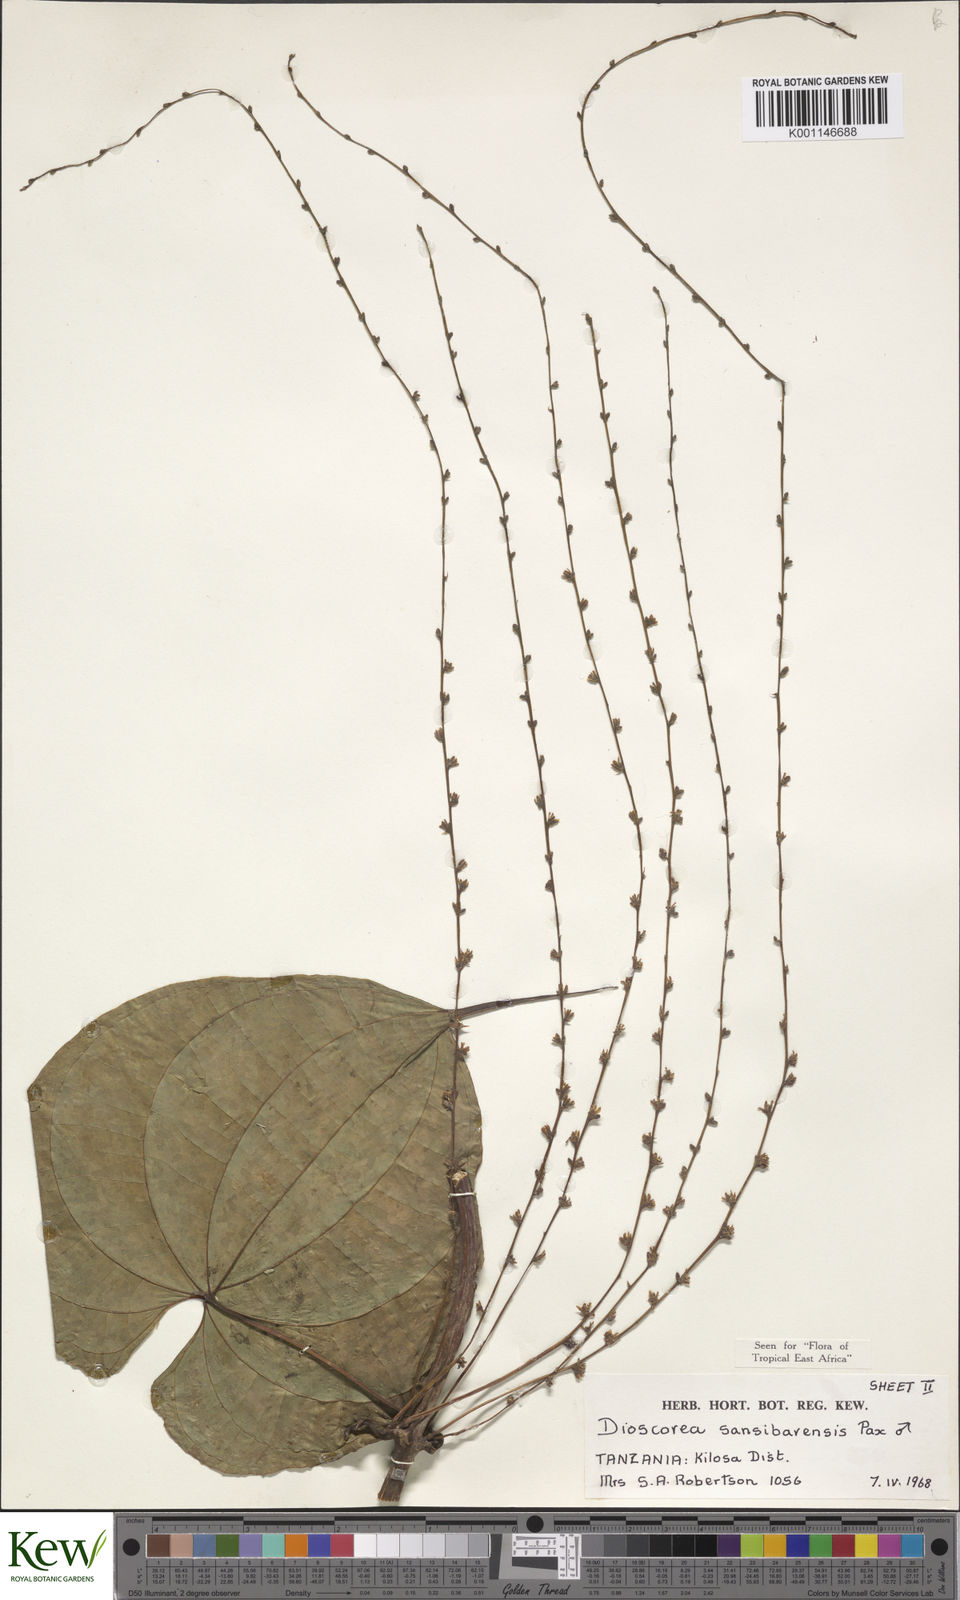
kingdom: Plantae
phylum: Tracheophyta
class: Liliopsida
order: Dioscoreales
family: Dioscoreaceae
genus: Dioscorea
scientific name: Dioscorea sansibarensis
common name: Zanzibar yam
